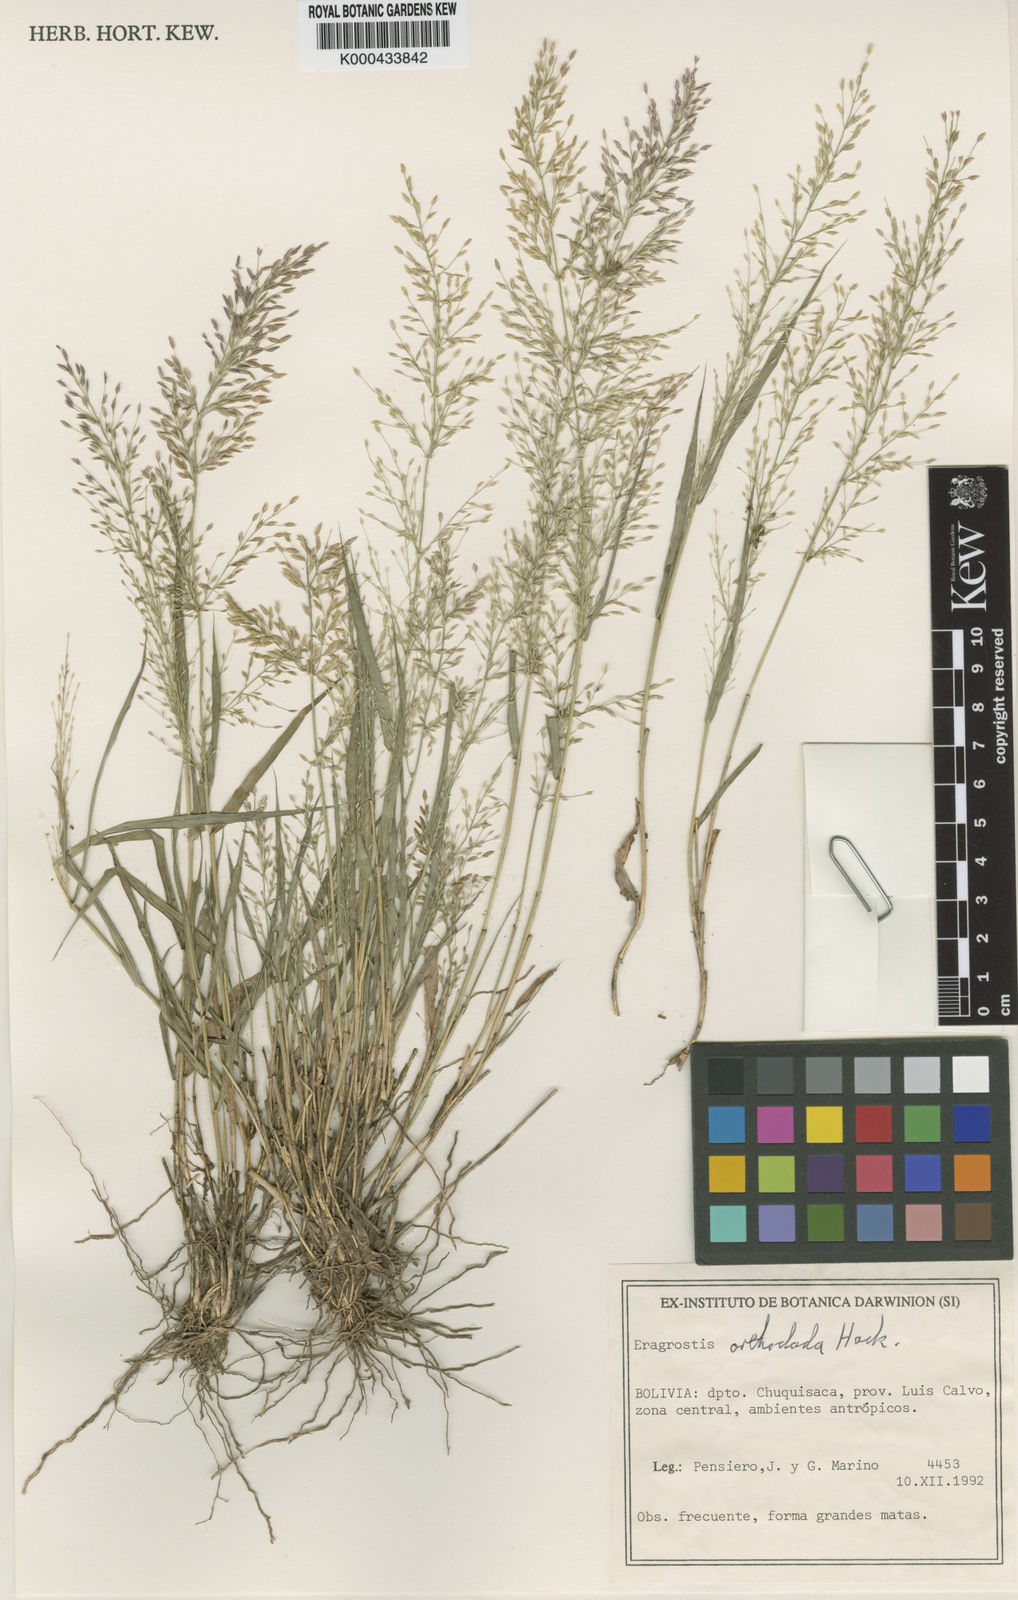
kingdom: Plantae
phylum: Tracheophyta
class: Liliopsida
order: Poales
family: Poaceae
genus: Eragrostis
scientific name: Eragrostis orthoclada
